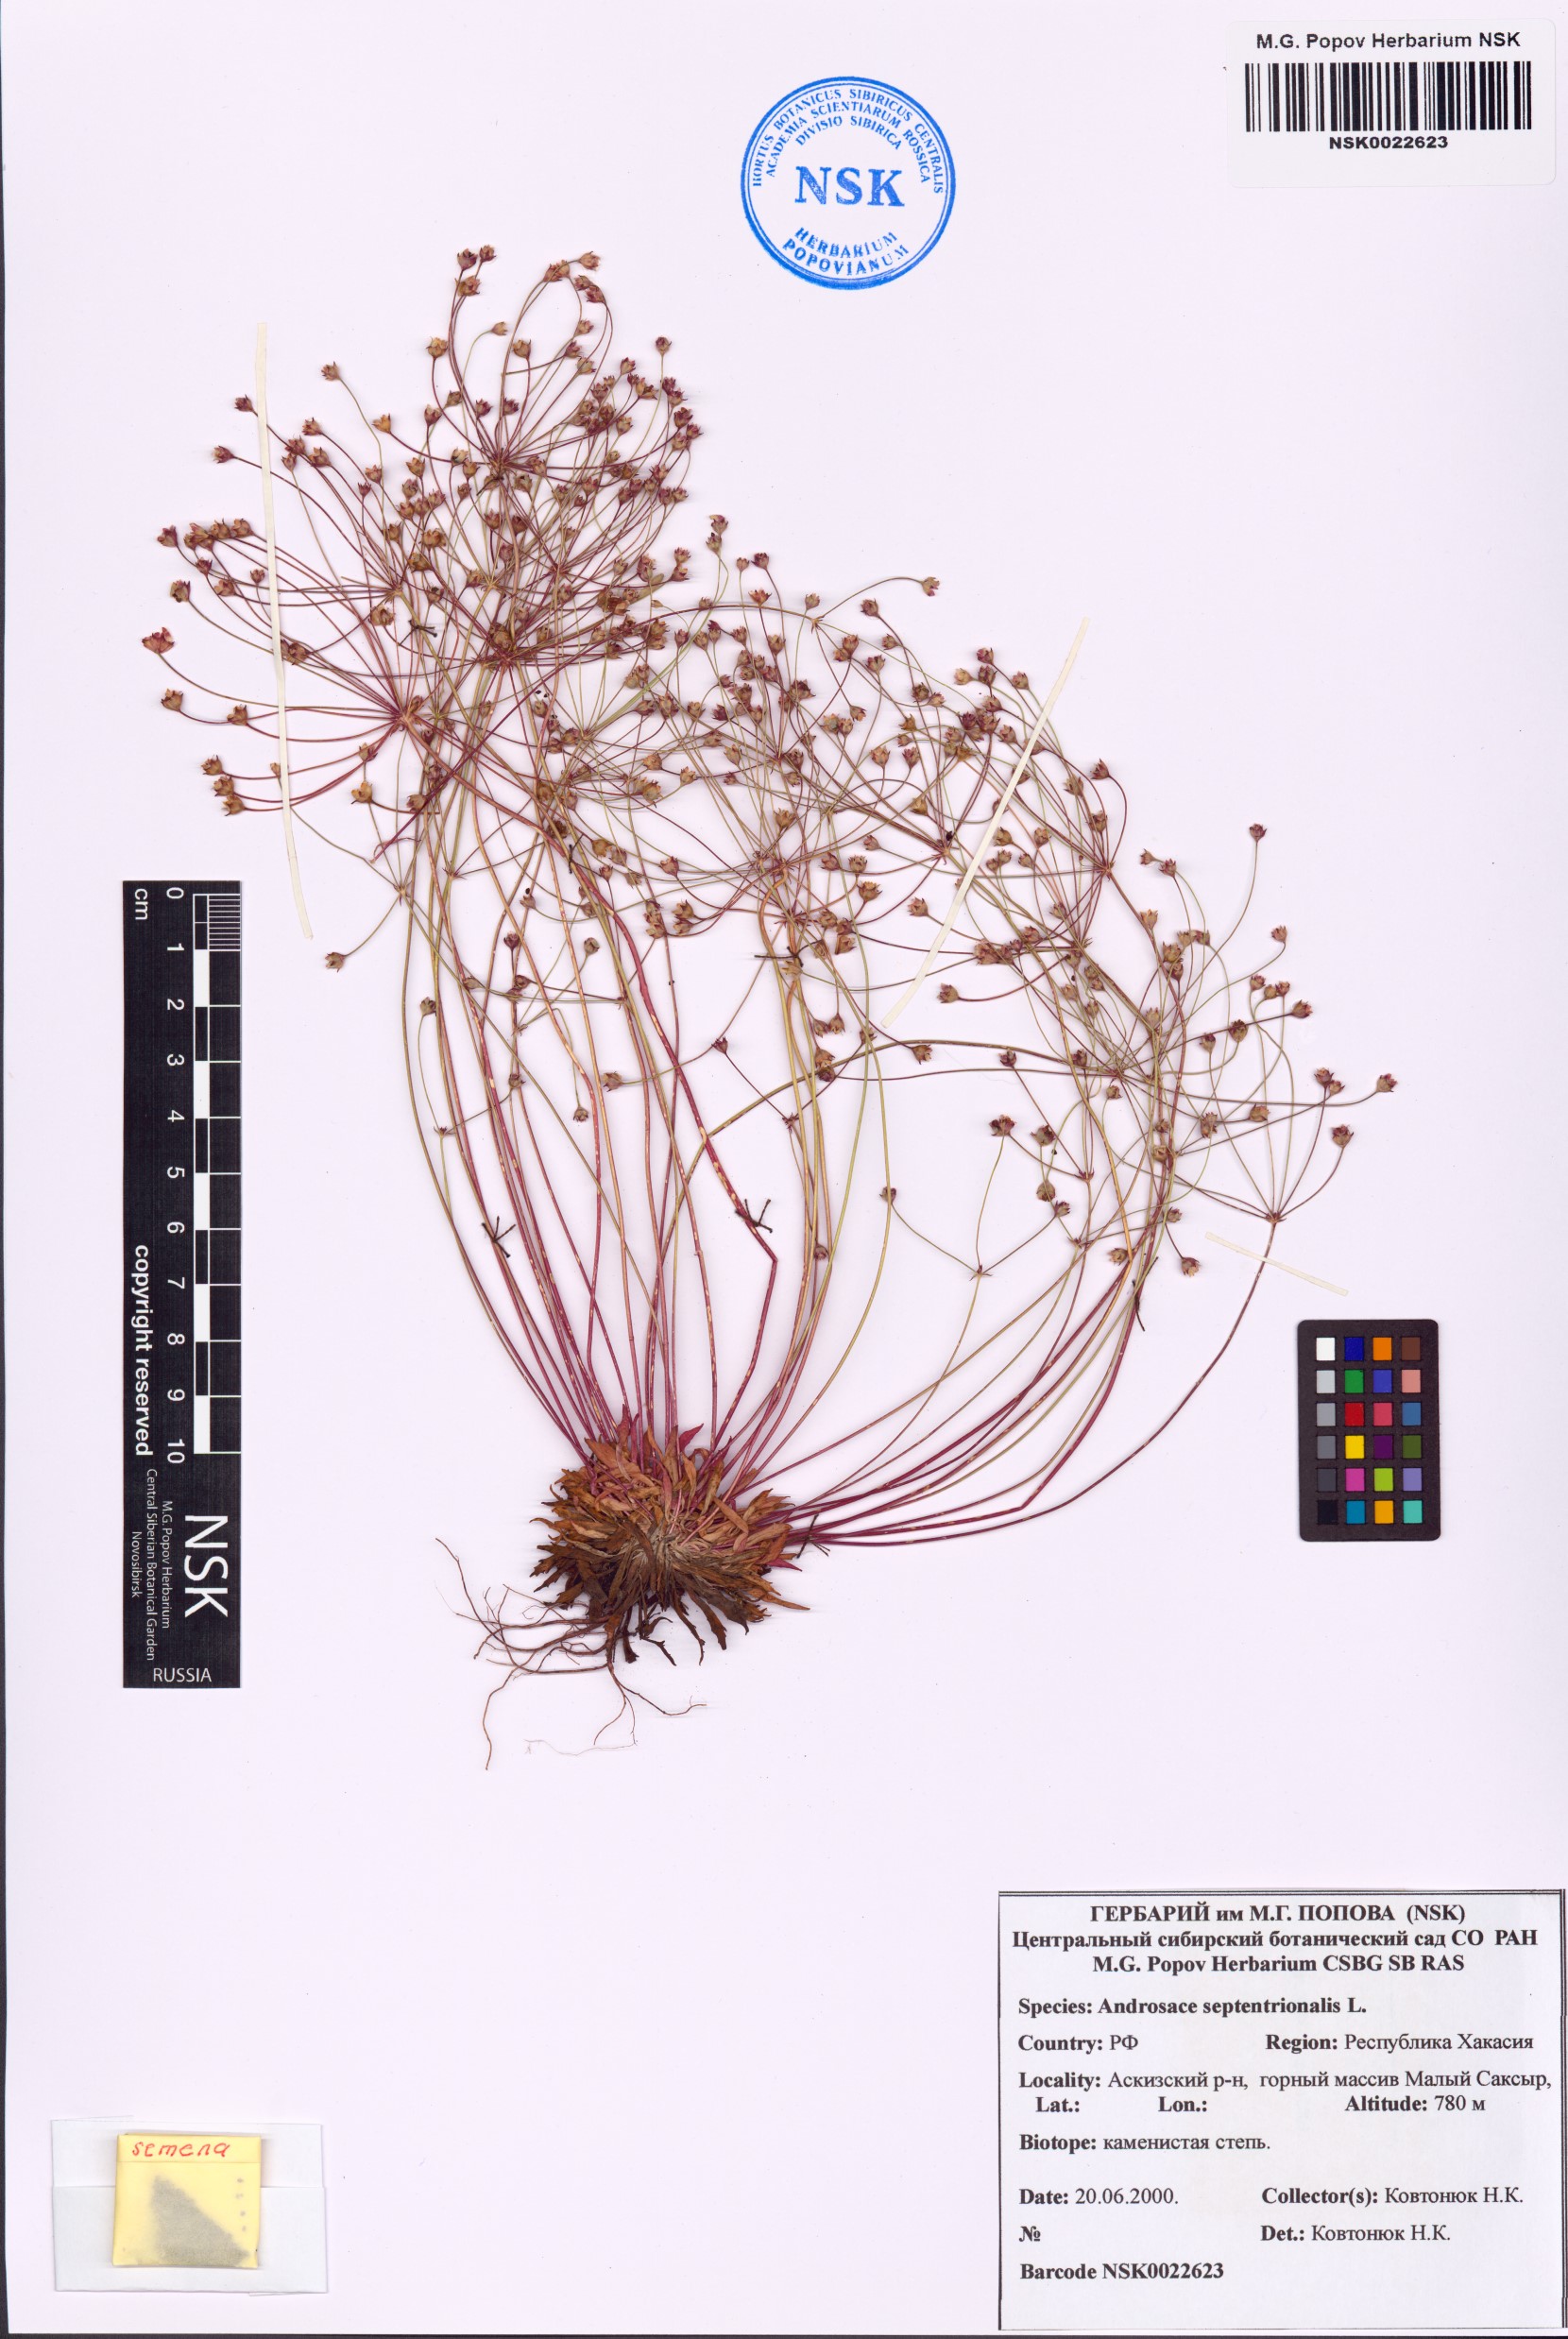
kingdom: Plantae
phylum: Tracheophyta
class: Magnoliopsida
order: Ericales
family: Primulaceae
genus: Androsace
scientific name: Androsace septentrionalis
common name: Hairy northern fairy-candelabra
